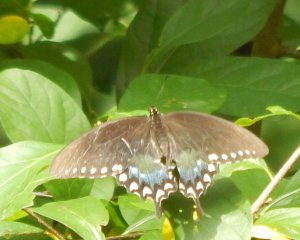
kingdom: Animalia
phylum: Arthropoda
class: Insecta
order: Lepidoptera
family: Papilionidae
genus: Pterourus
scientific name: Pterourus troilus
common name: Spicebush Swallowtail
